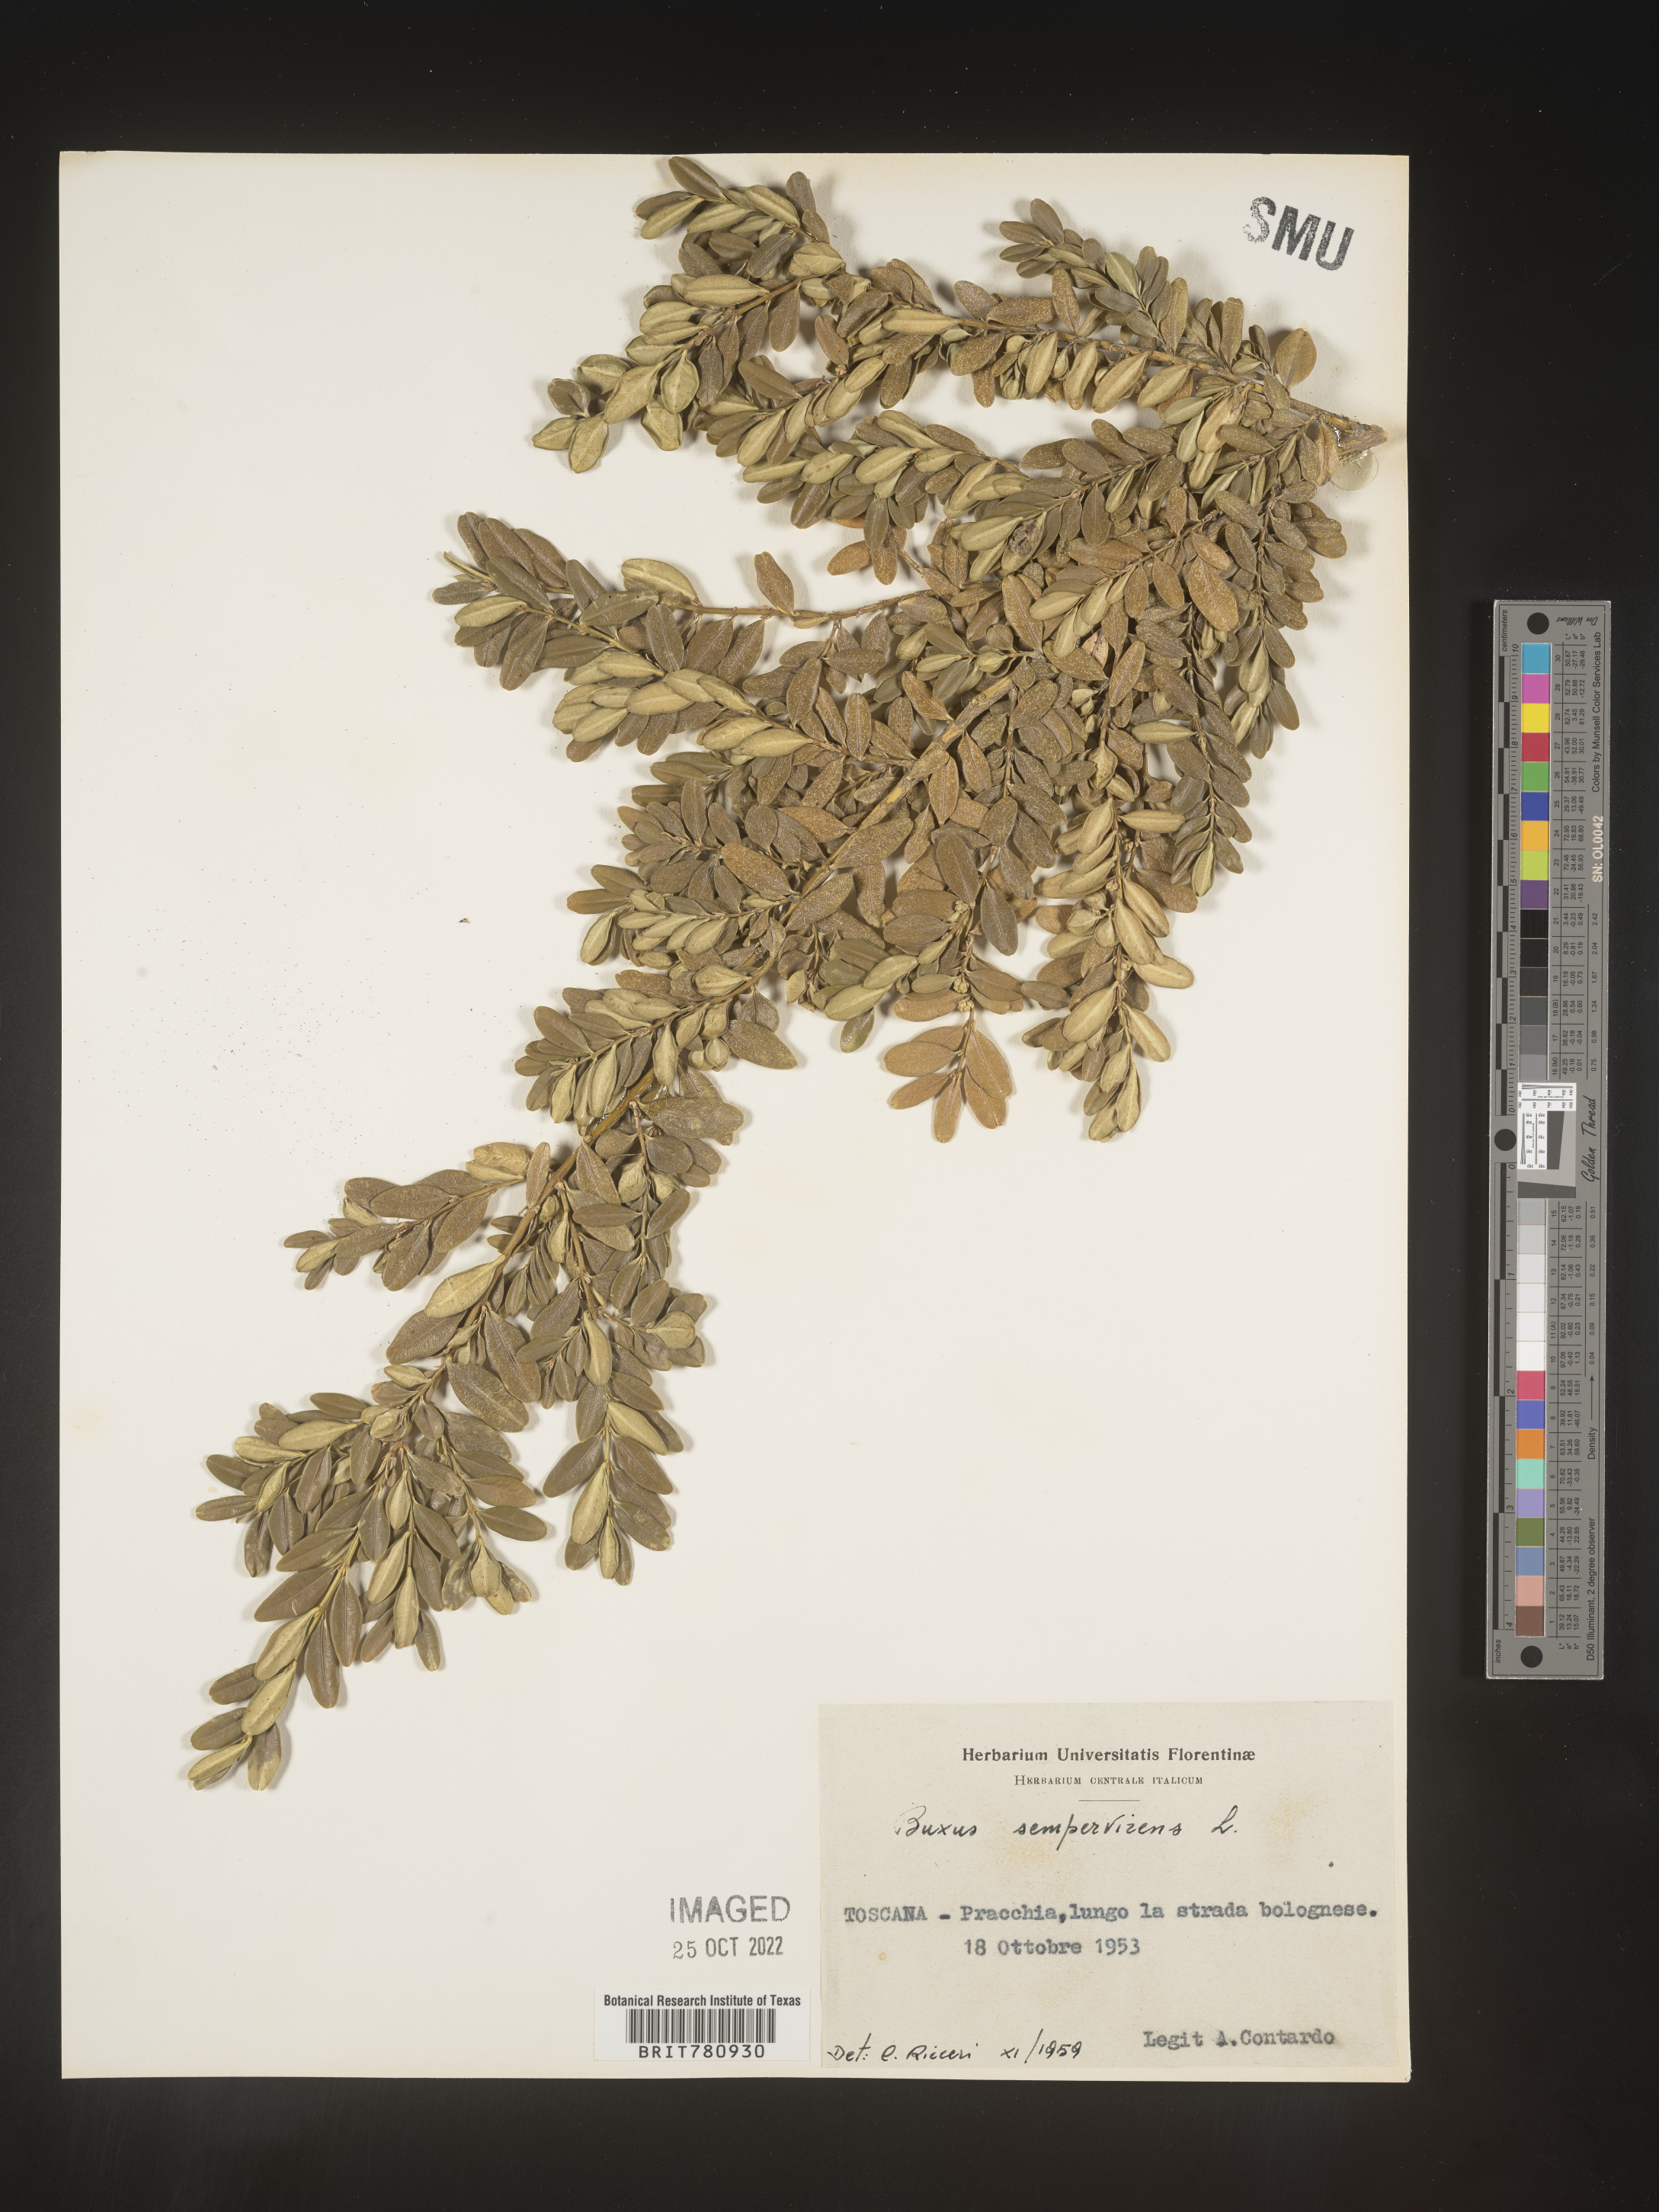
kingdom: Plantae
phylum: Tracheophyta
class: Magnoliopsida
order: Buxales
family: Buxaceae
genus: Buxus
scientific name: Buxus
